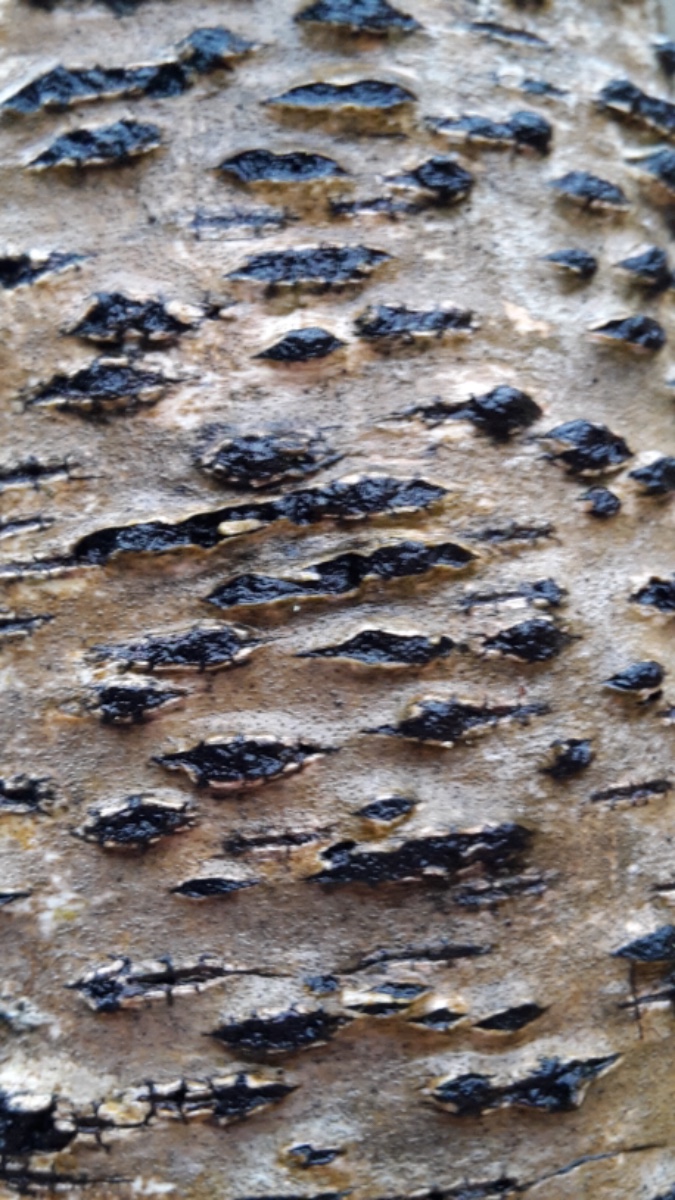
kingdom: Fungi
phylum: Ascomycota
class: Sordariomycetes
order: Xylariales
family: Diatrypaceae
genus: Diatrypella
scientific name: Diatrypella favacea
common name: Birch blackhead
